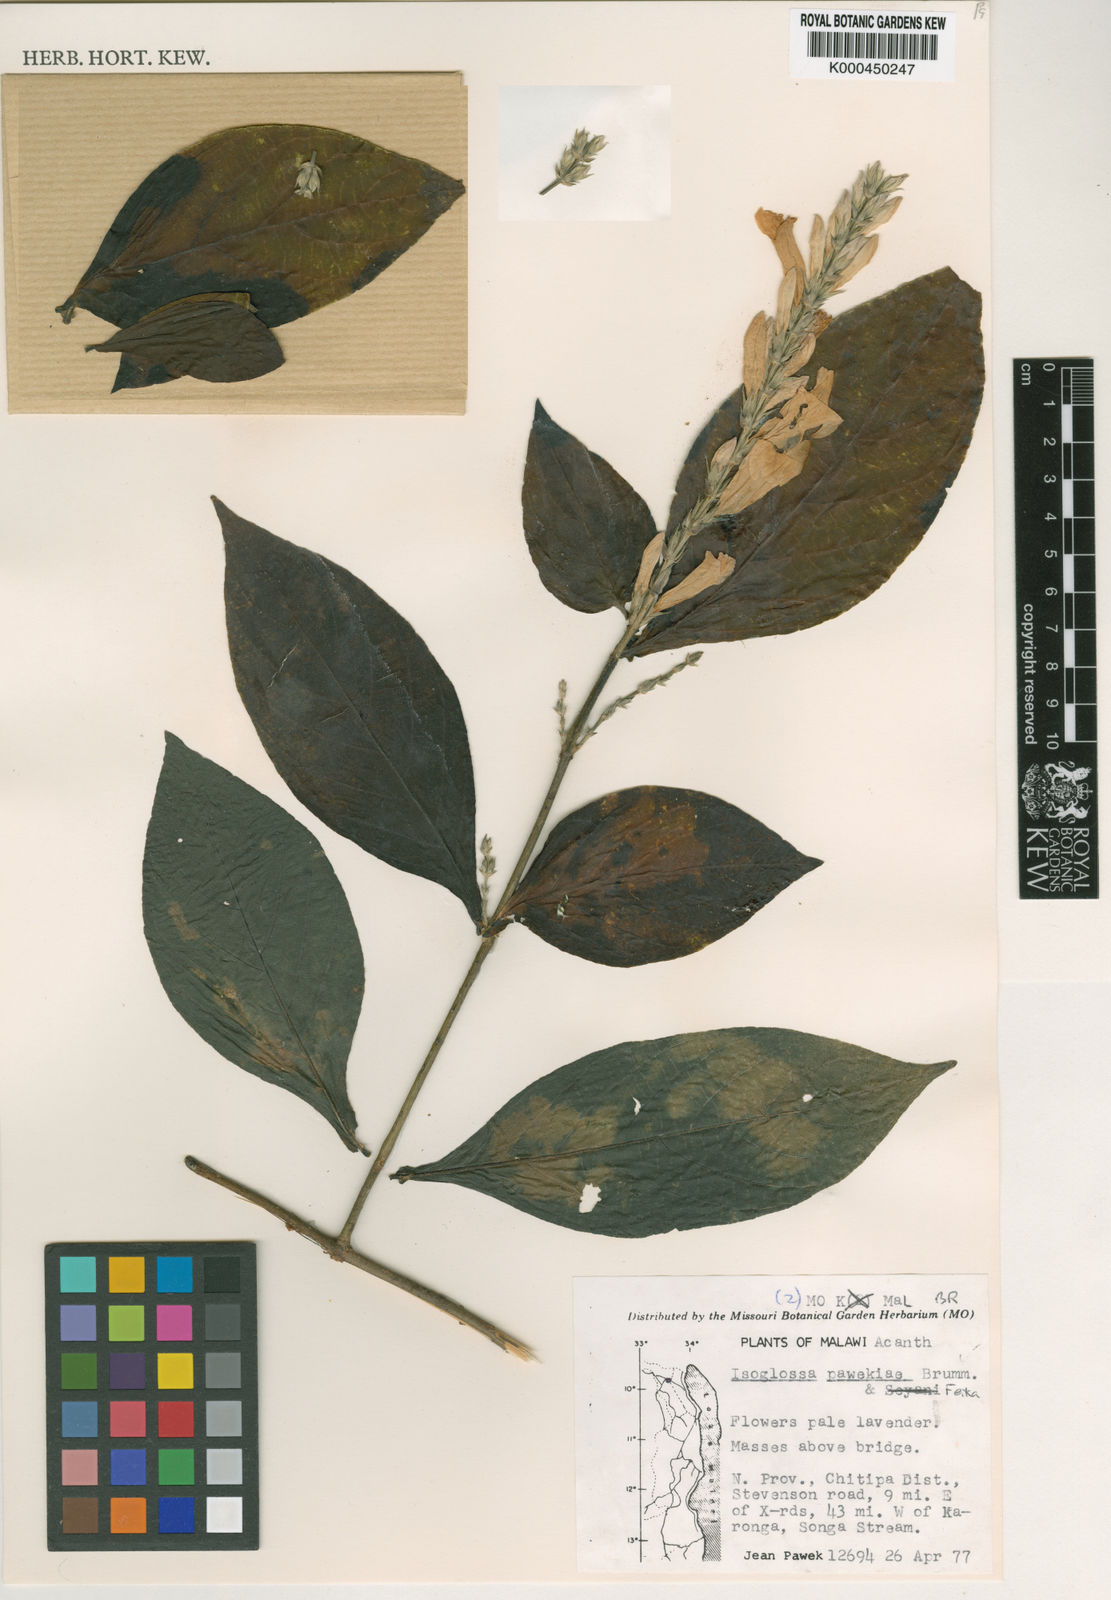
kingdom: Plantae
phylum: Tracheophyta
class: Magnoliopsida
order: Lamiales
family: Acanthaceae
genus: Isoglossa
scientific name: Isoglossa pawekiae
